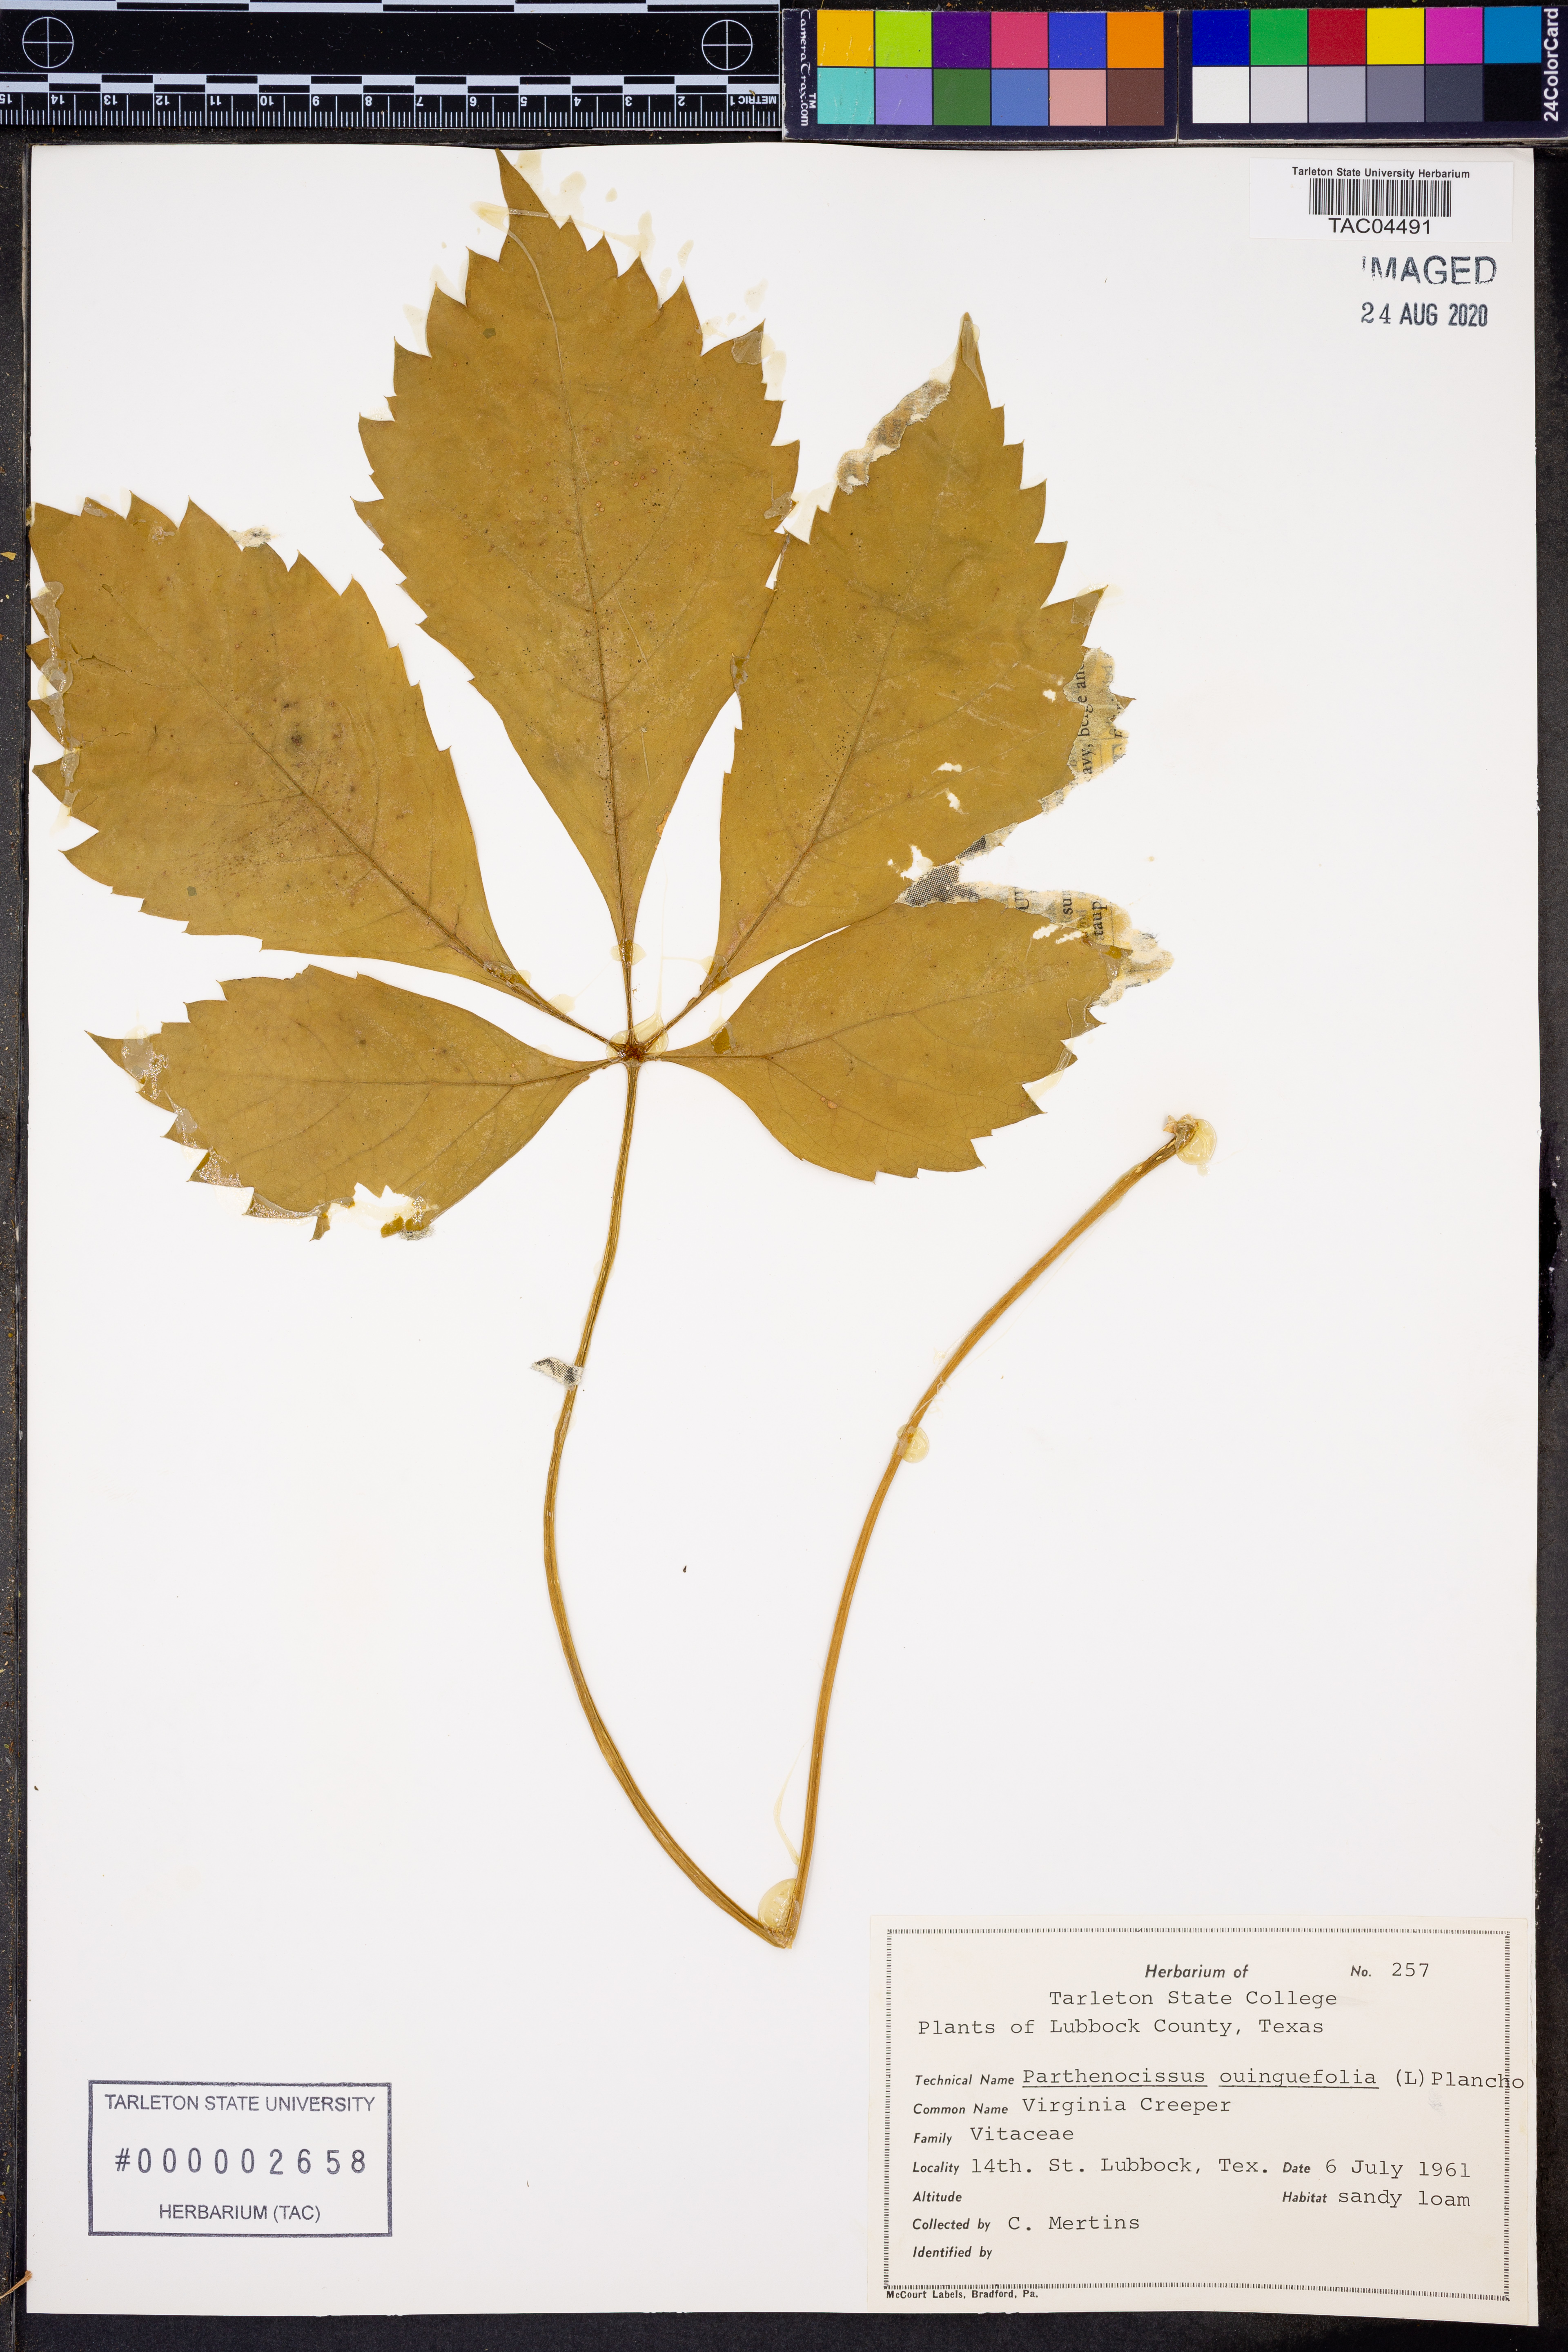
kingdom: Plantae
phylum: Tracheophyta
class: Magnoliopsida
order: Vitales
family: Vitaceae
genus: Parthenocissus
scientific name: Parthenocissus quinquefolia
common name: Virginia-creeper
